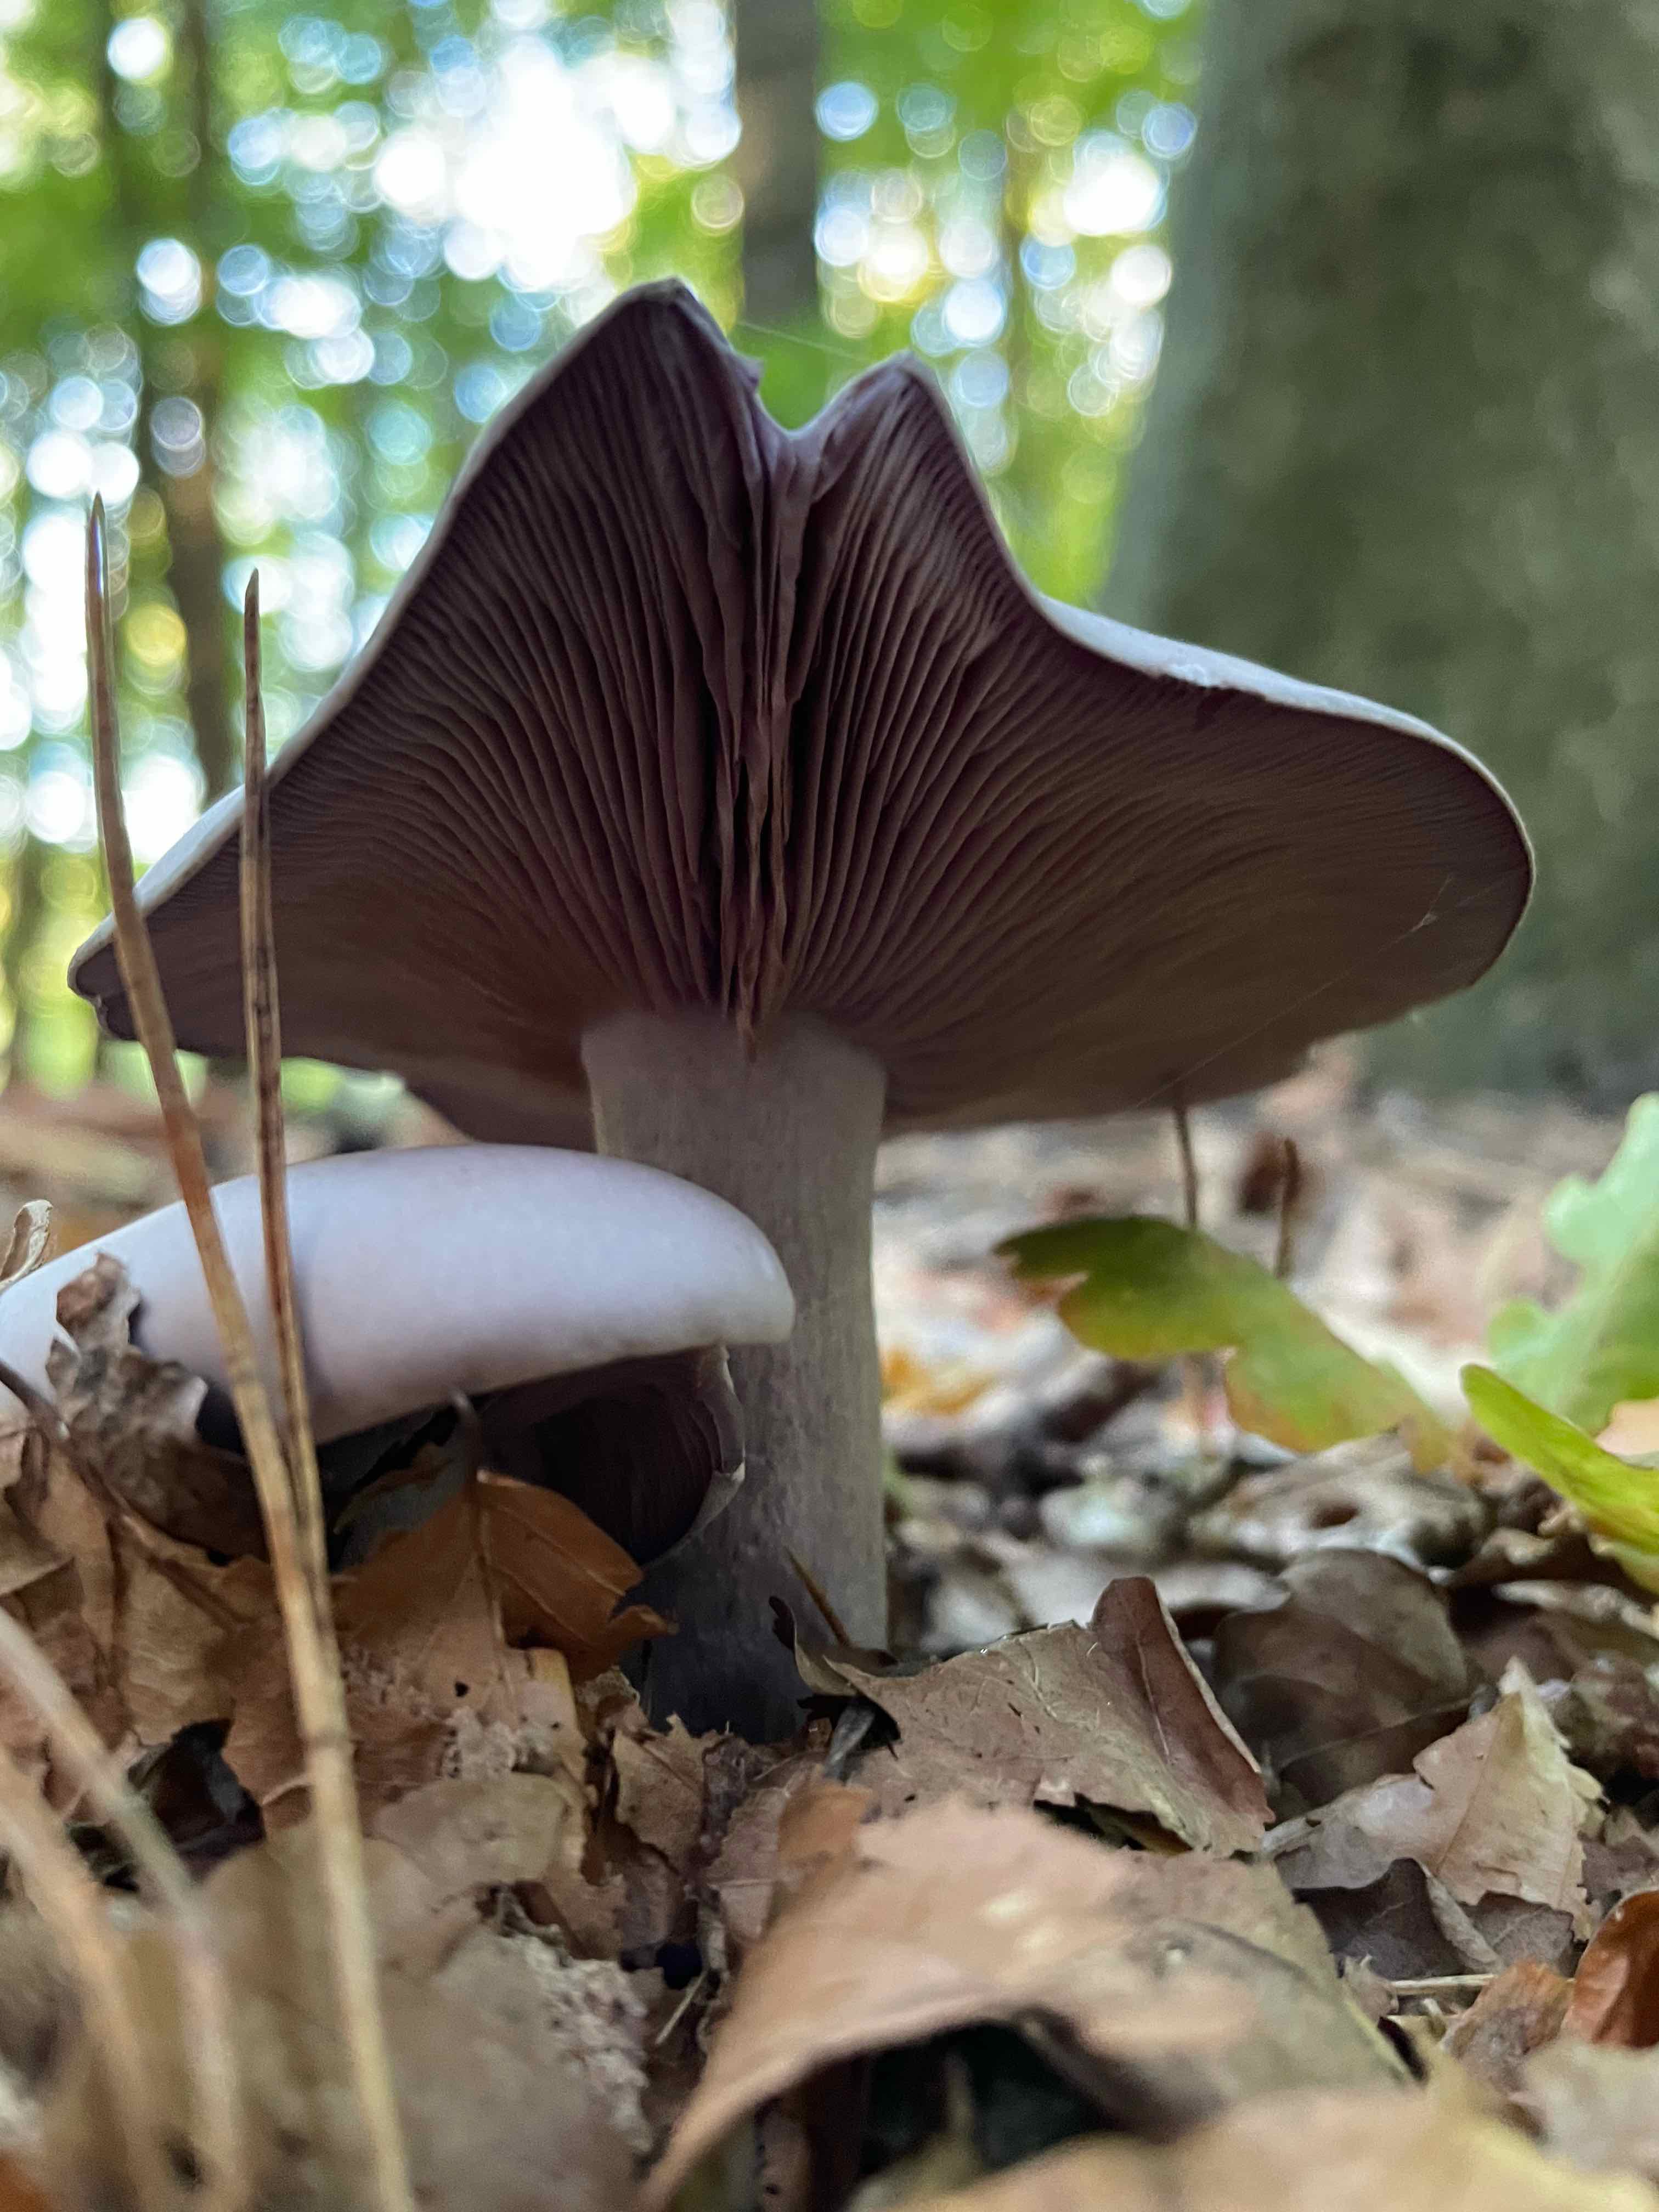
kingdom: Fungi
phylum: Basidiomycota
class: Agaricomycetes
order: Agaricales
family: Tricholomataceae
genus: Lepista
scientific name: Lepista nuda
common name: violet hekseringshat
